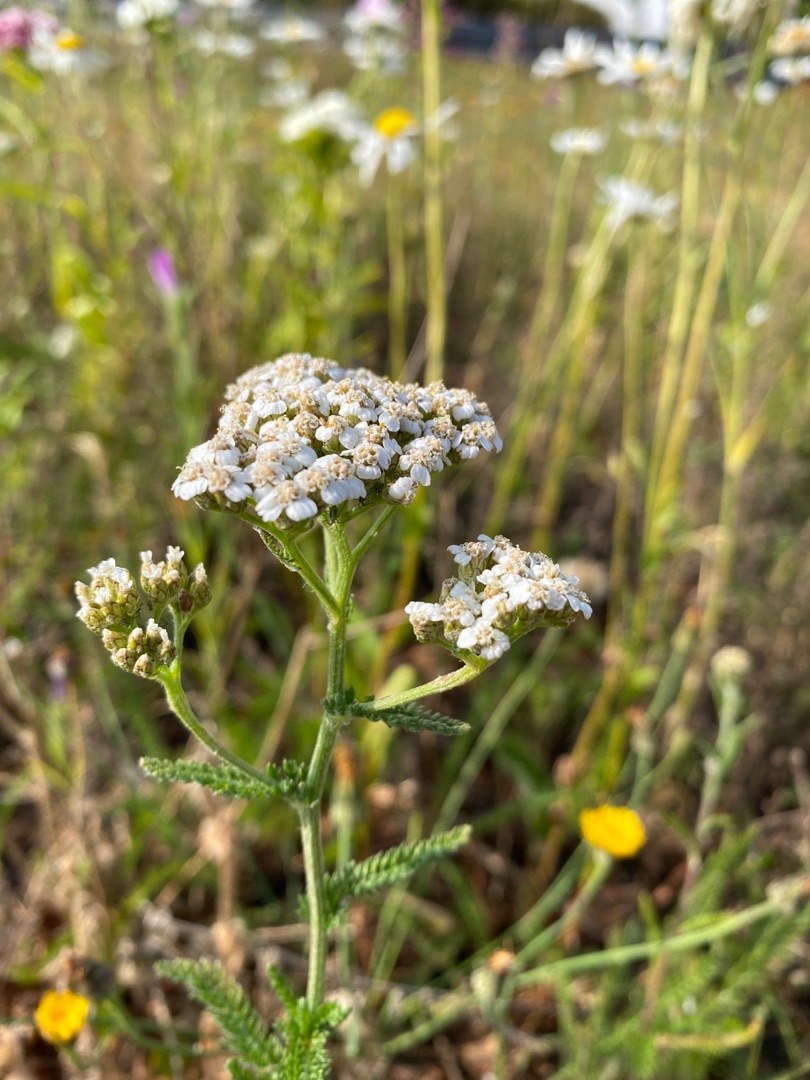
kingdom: Plantae
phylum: Tracheophyta
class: Magnoliopsida
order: Asterales
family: Asteraceae
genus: Achillea
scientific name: Achillea millefolium
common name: Almindelig røllike
